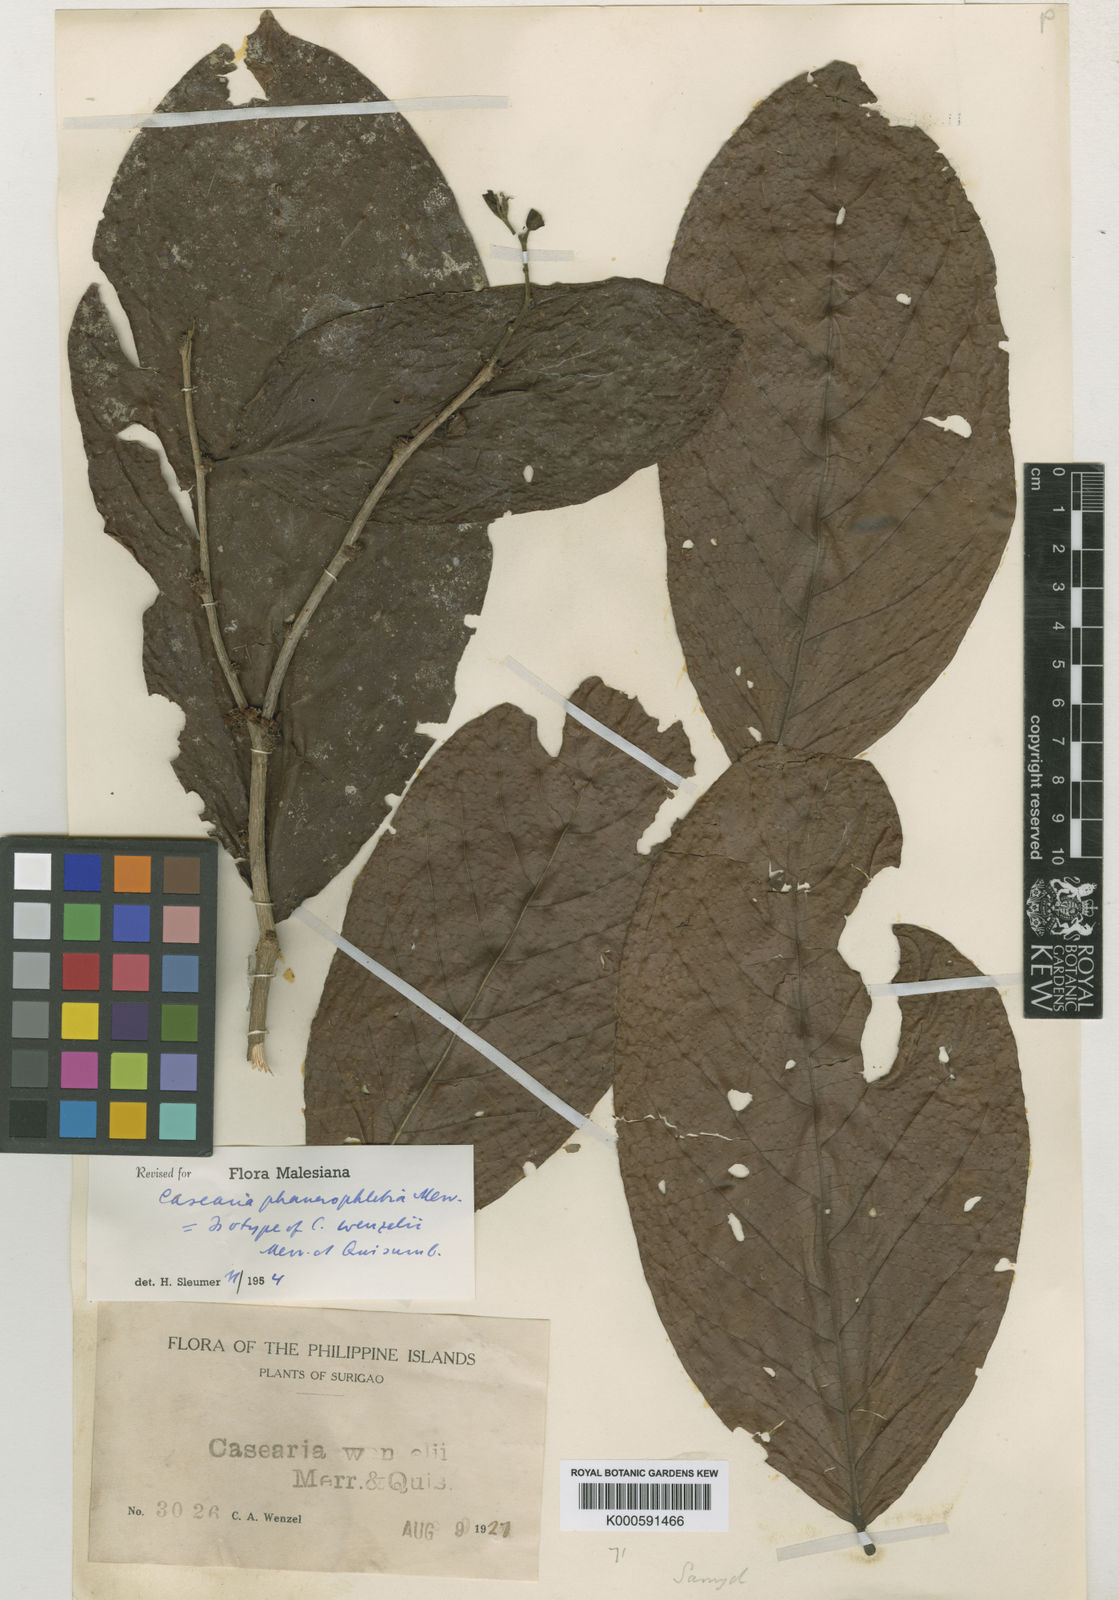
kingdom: Plantae
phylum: Tracheophyta
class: Magnoliopsida
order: Malpighiales
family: Salicaceae
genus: Casearia
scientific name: Casearia phanerophlebia
